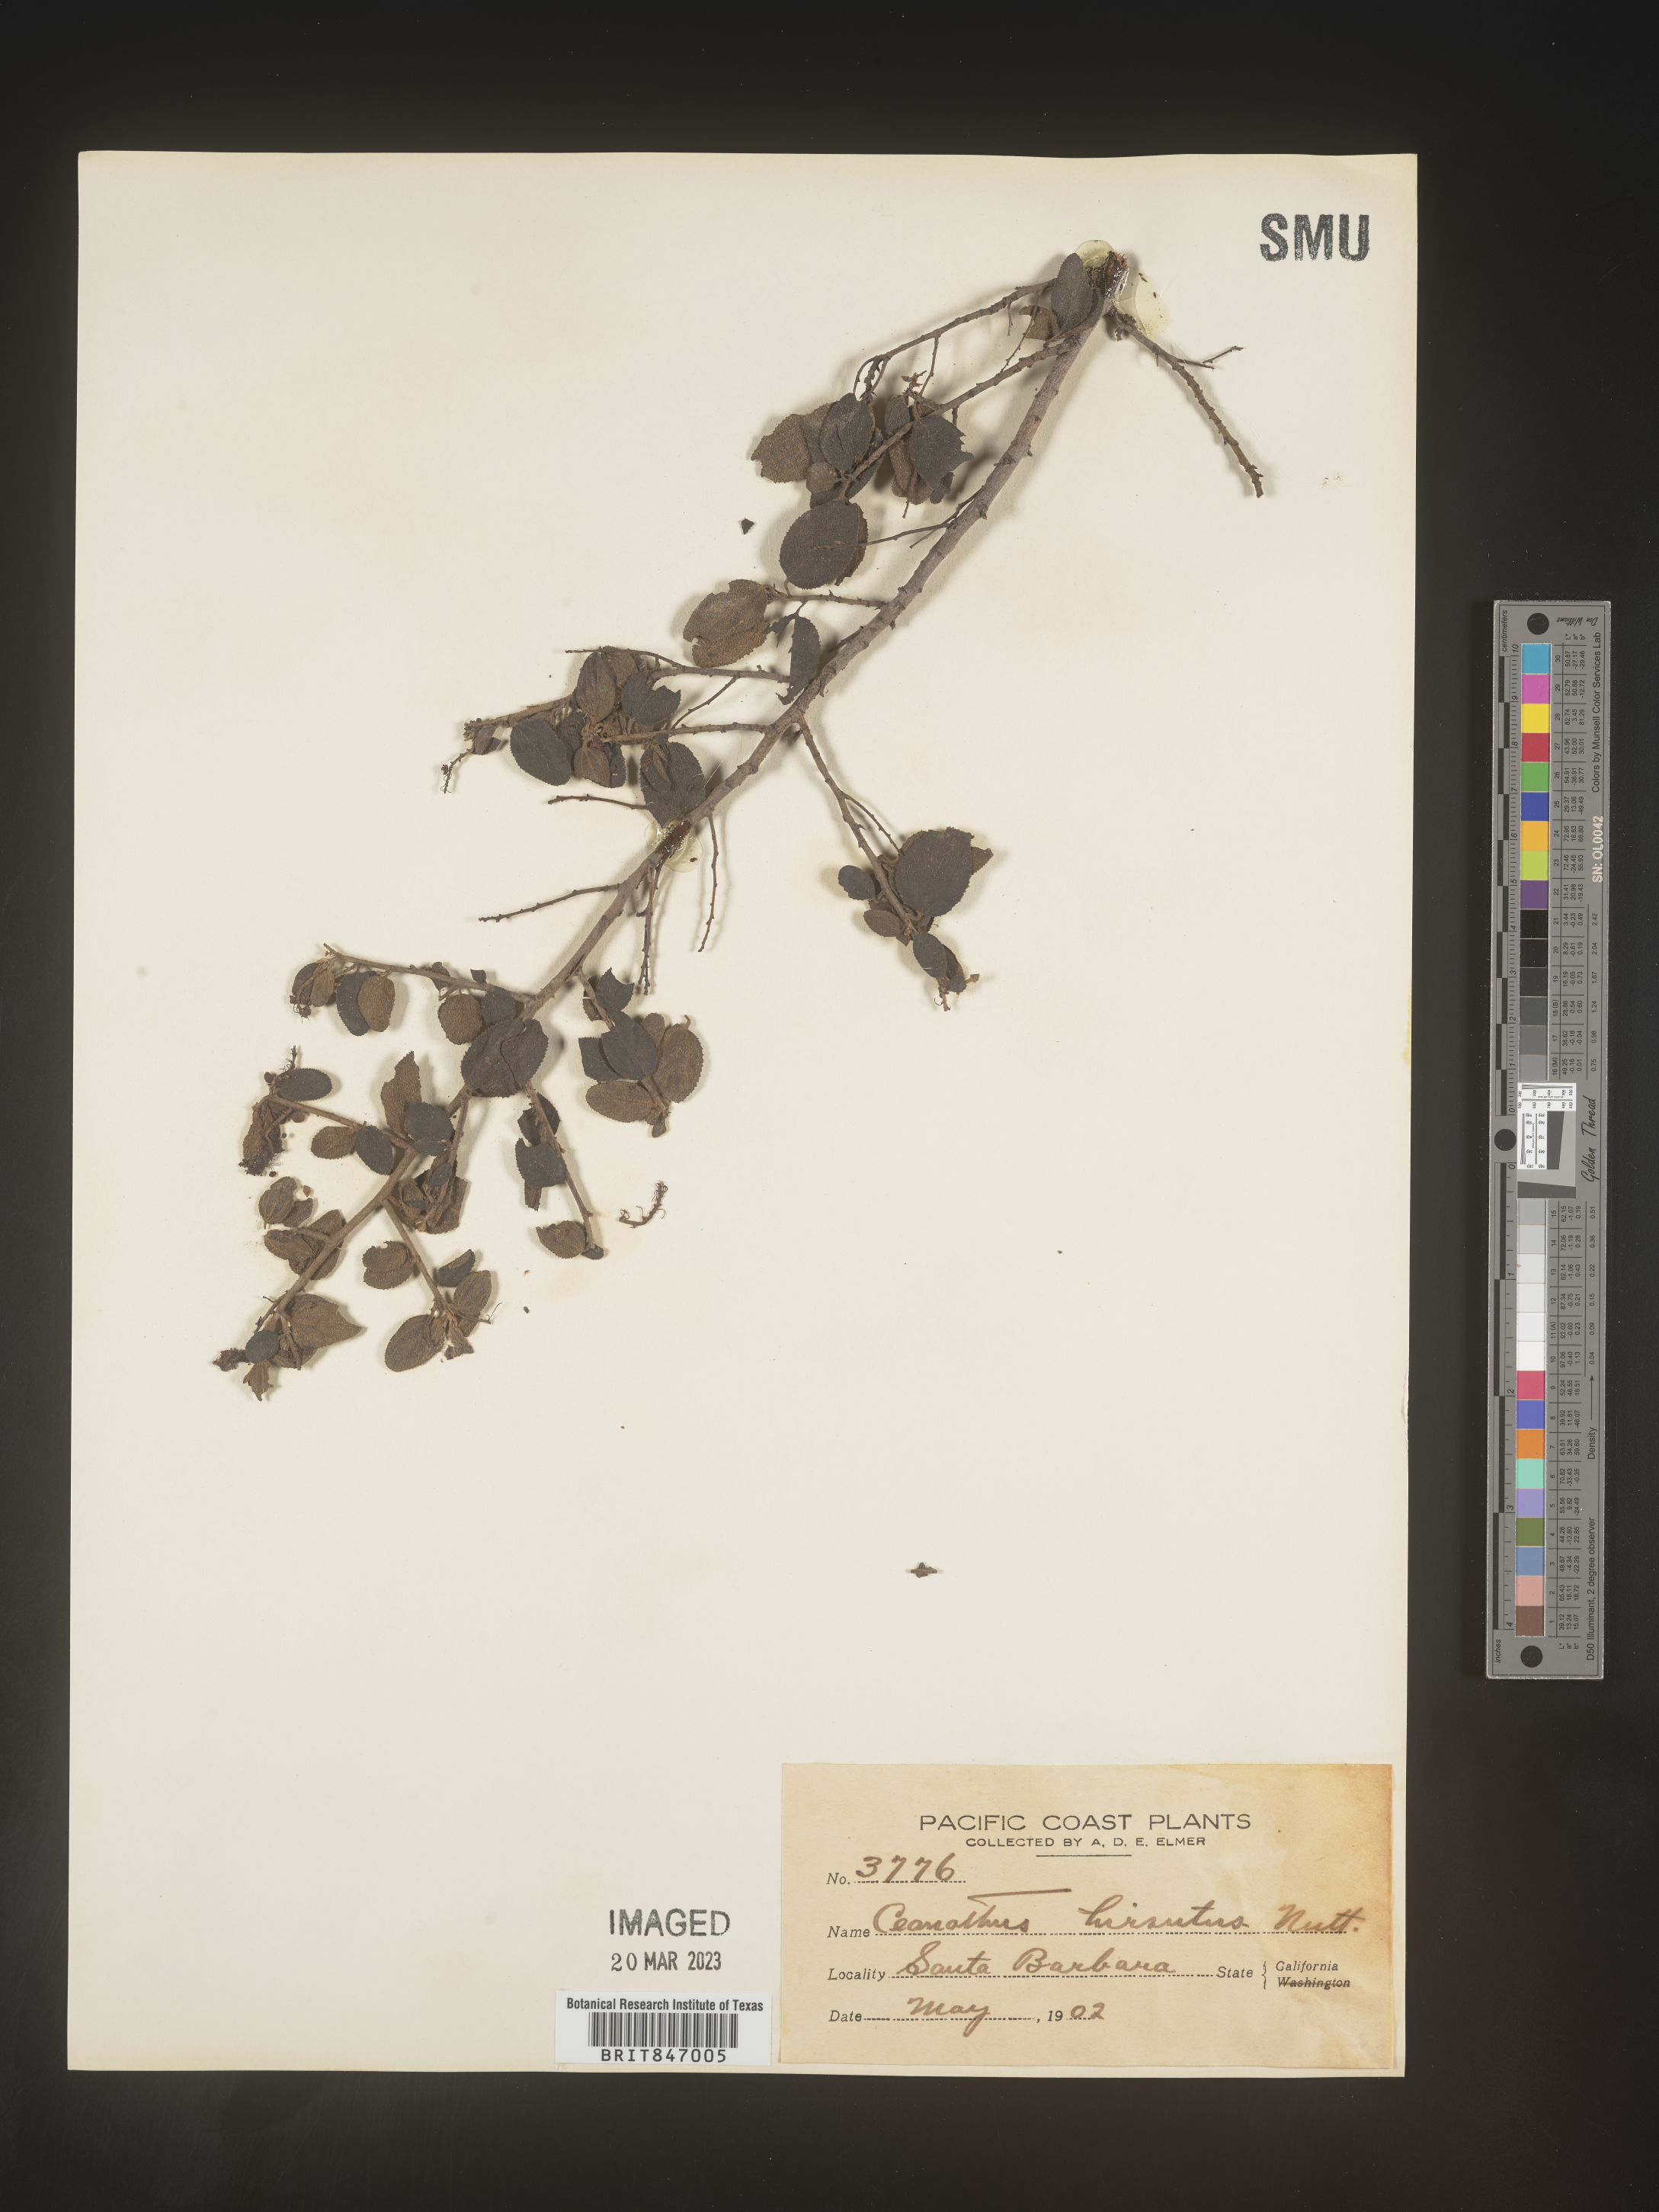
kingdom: Plantae
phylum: Tracheophyta
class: Magnoliopsida
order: Rosales
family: Rhamnaceae
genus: Ceanothus
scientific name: Ceanothus
